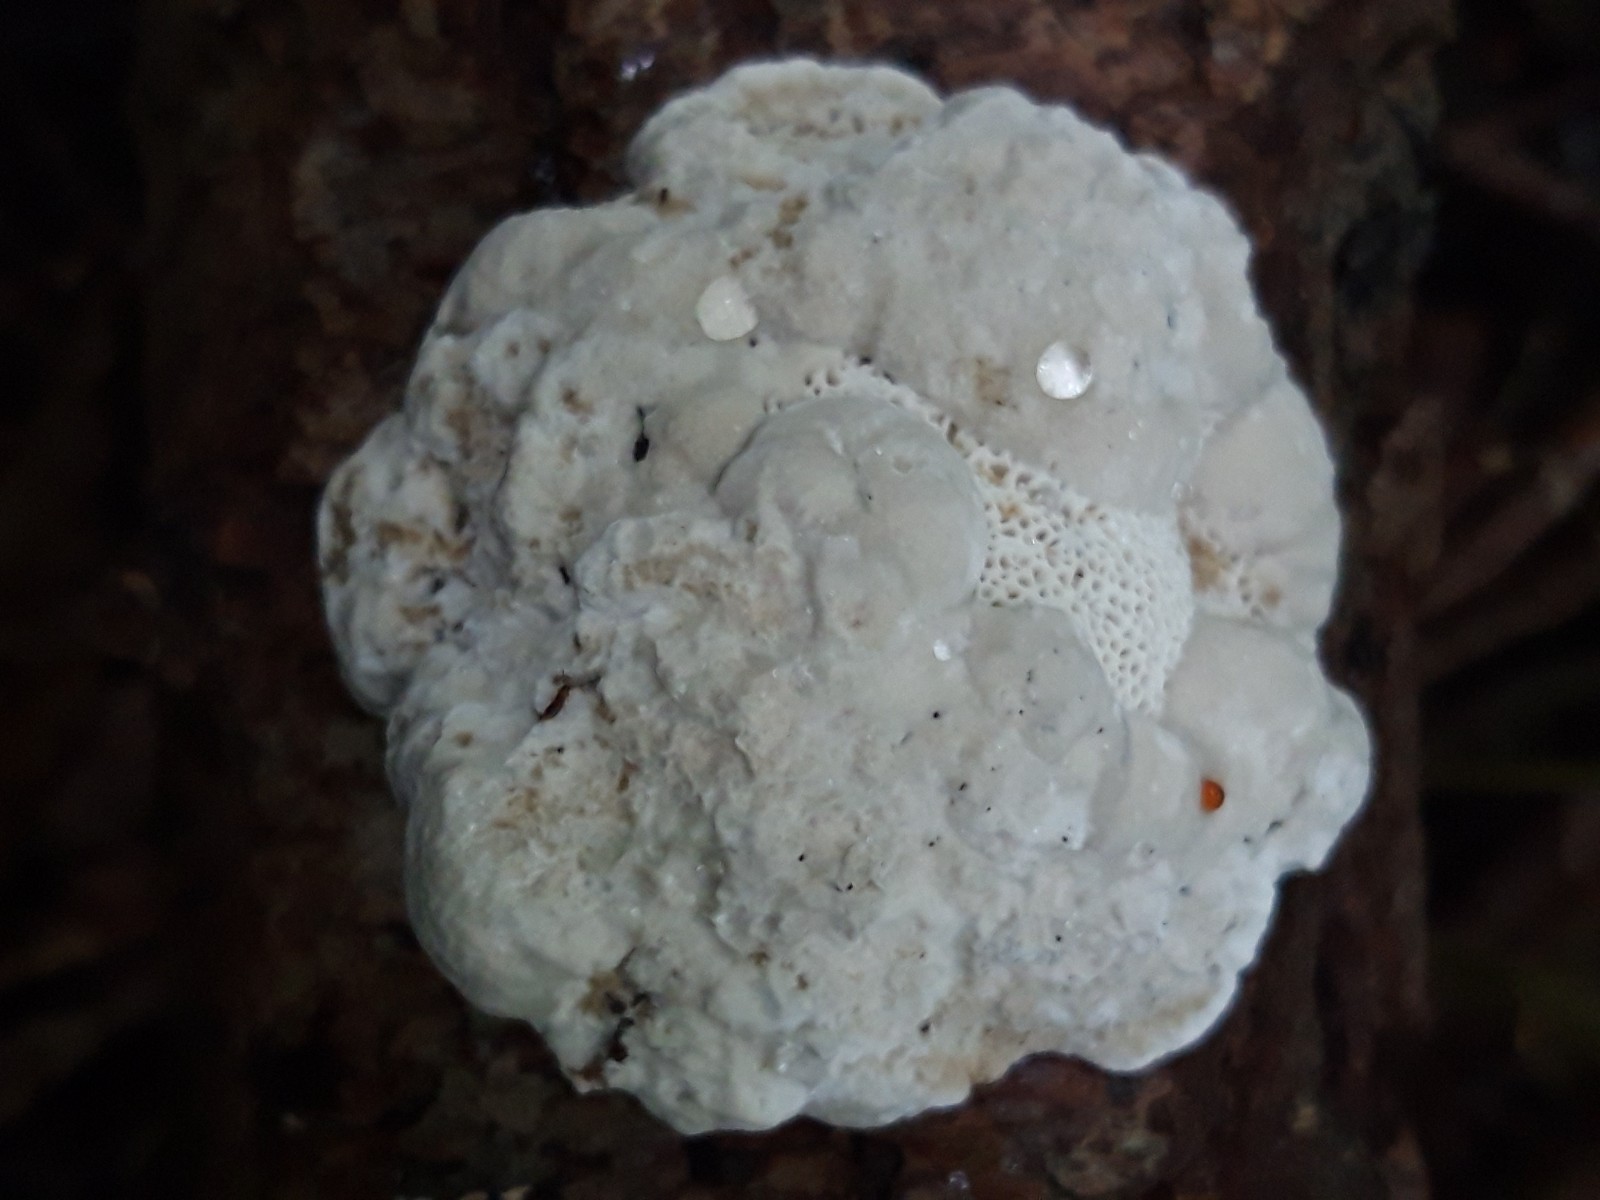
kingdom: Fungi
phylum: Basidiomycota
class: Agaricomycetes
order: Polyporales
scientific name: Polyporales
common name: poresvampordenen
